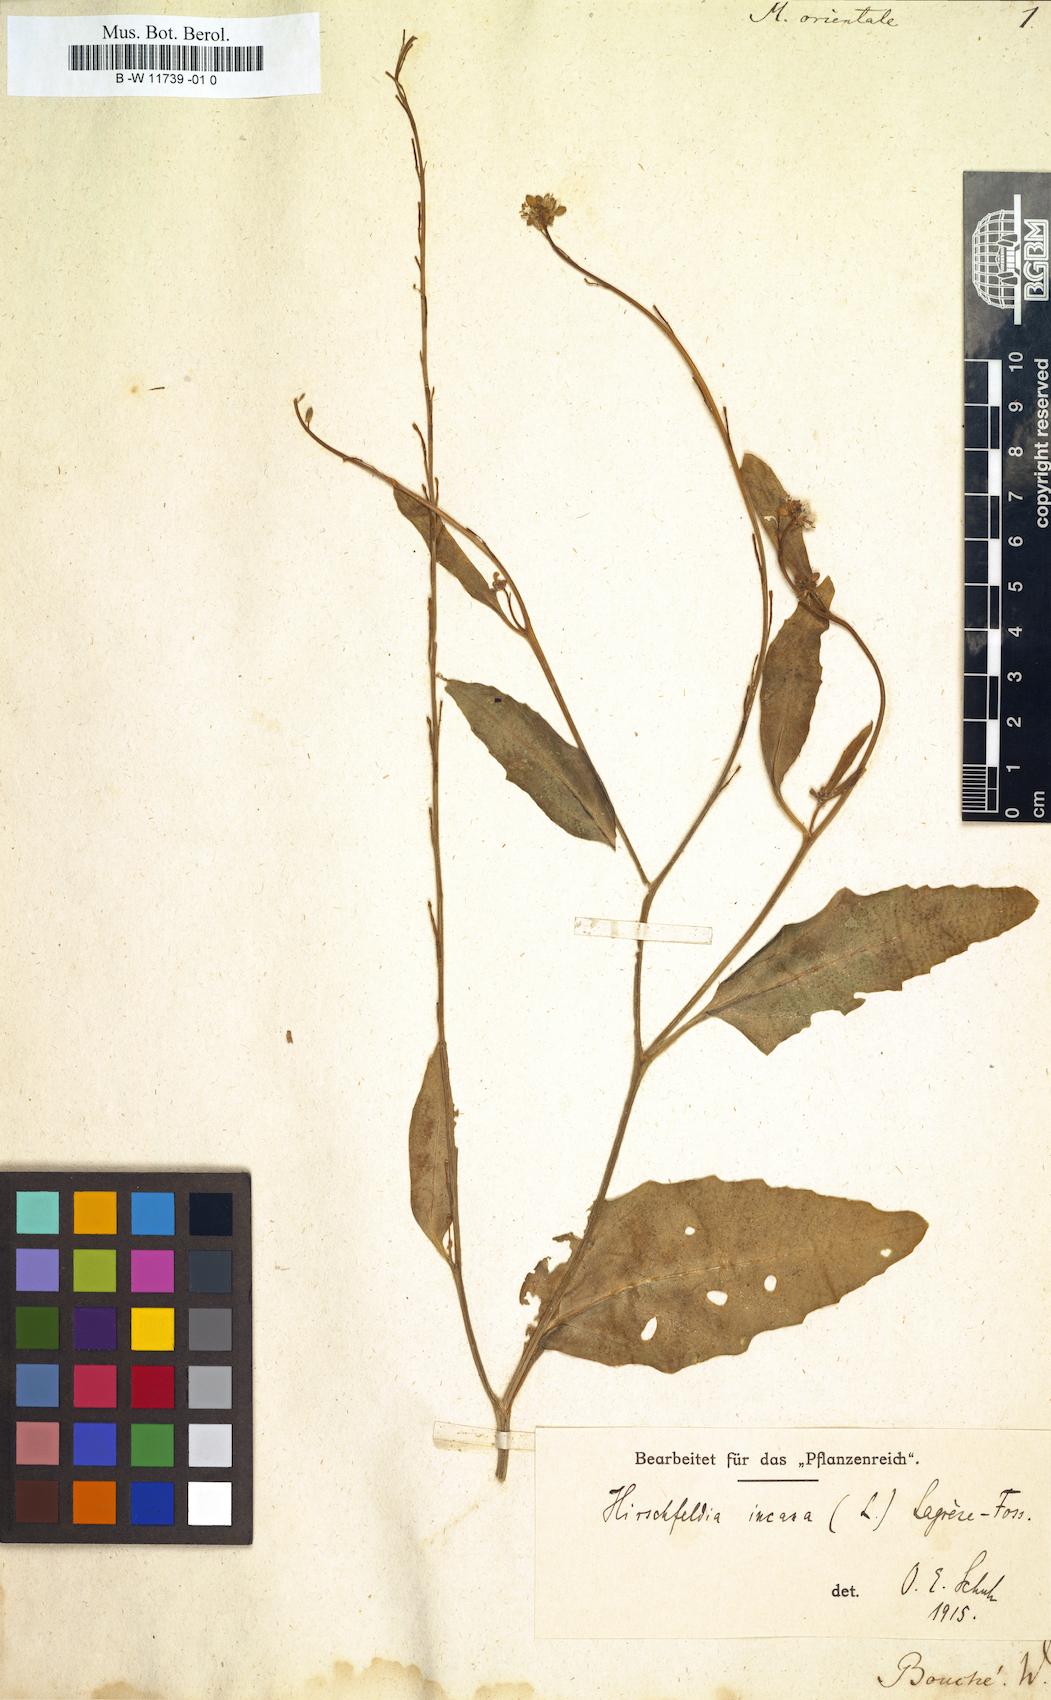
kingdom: Plantae
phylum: Tracheophyta
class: Magnoliopsida
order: Brassicales
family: Brassicaceae
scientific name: Brassicaceae
